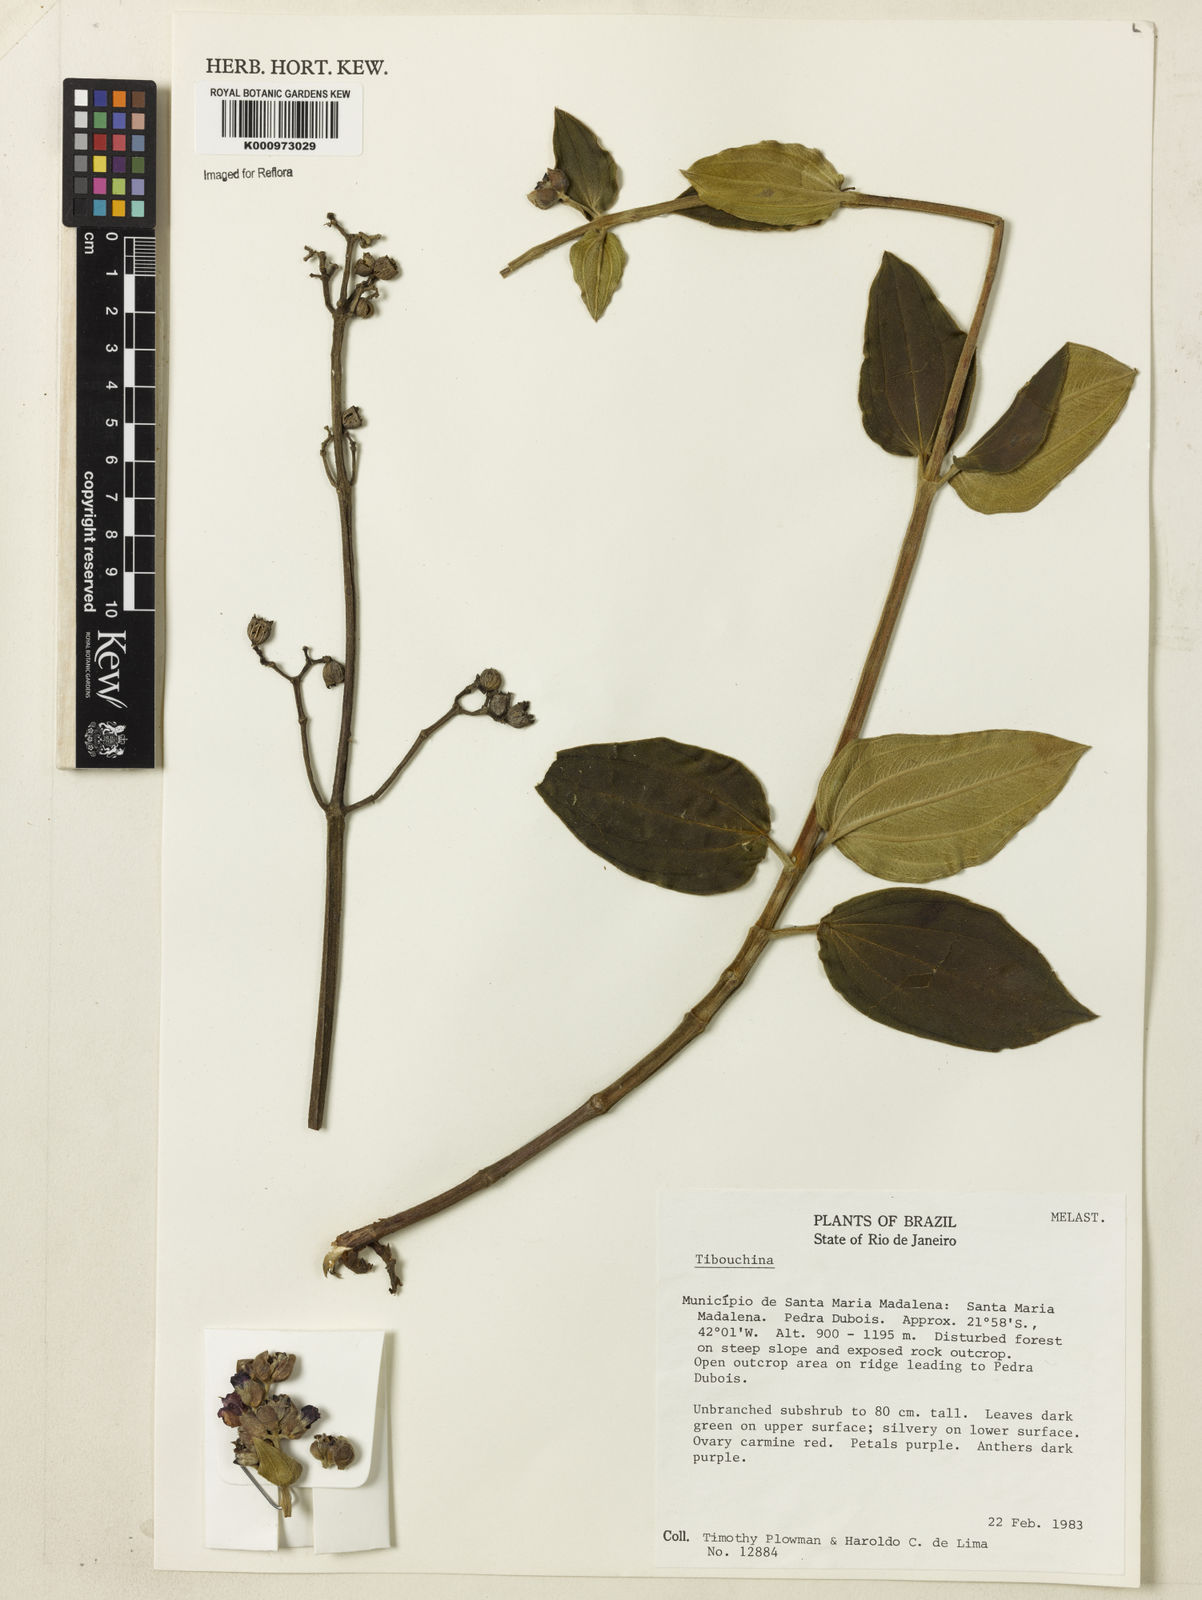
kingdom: Plantae
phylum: Tracheophyta
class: Magnoliopsida
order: Myrtales
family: Melastomataceae
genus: Tibouchina
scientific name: Tibouchina
